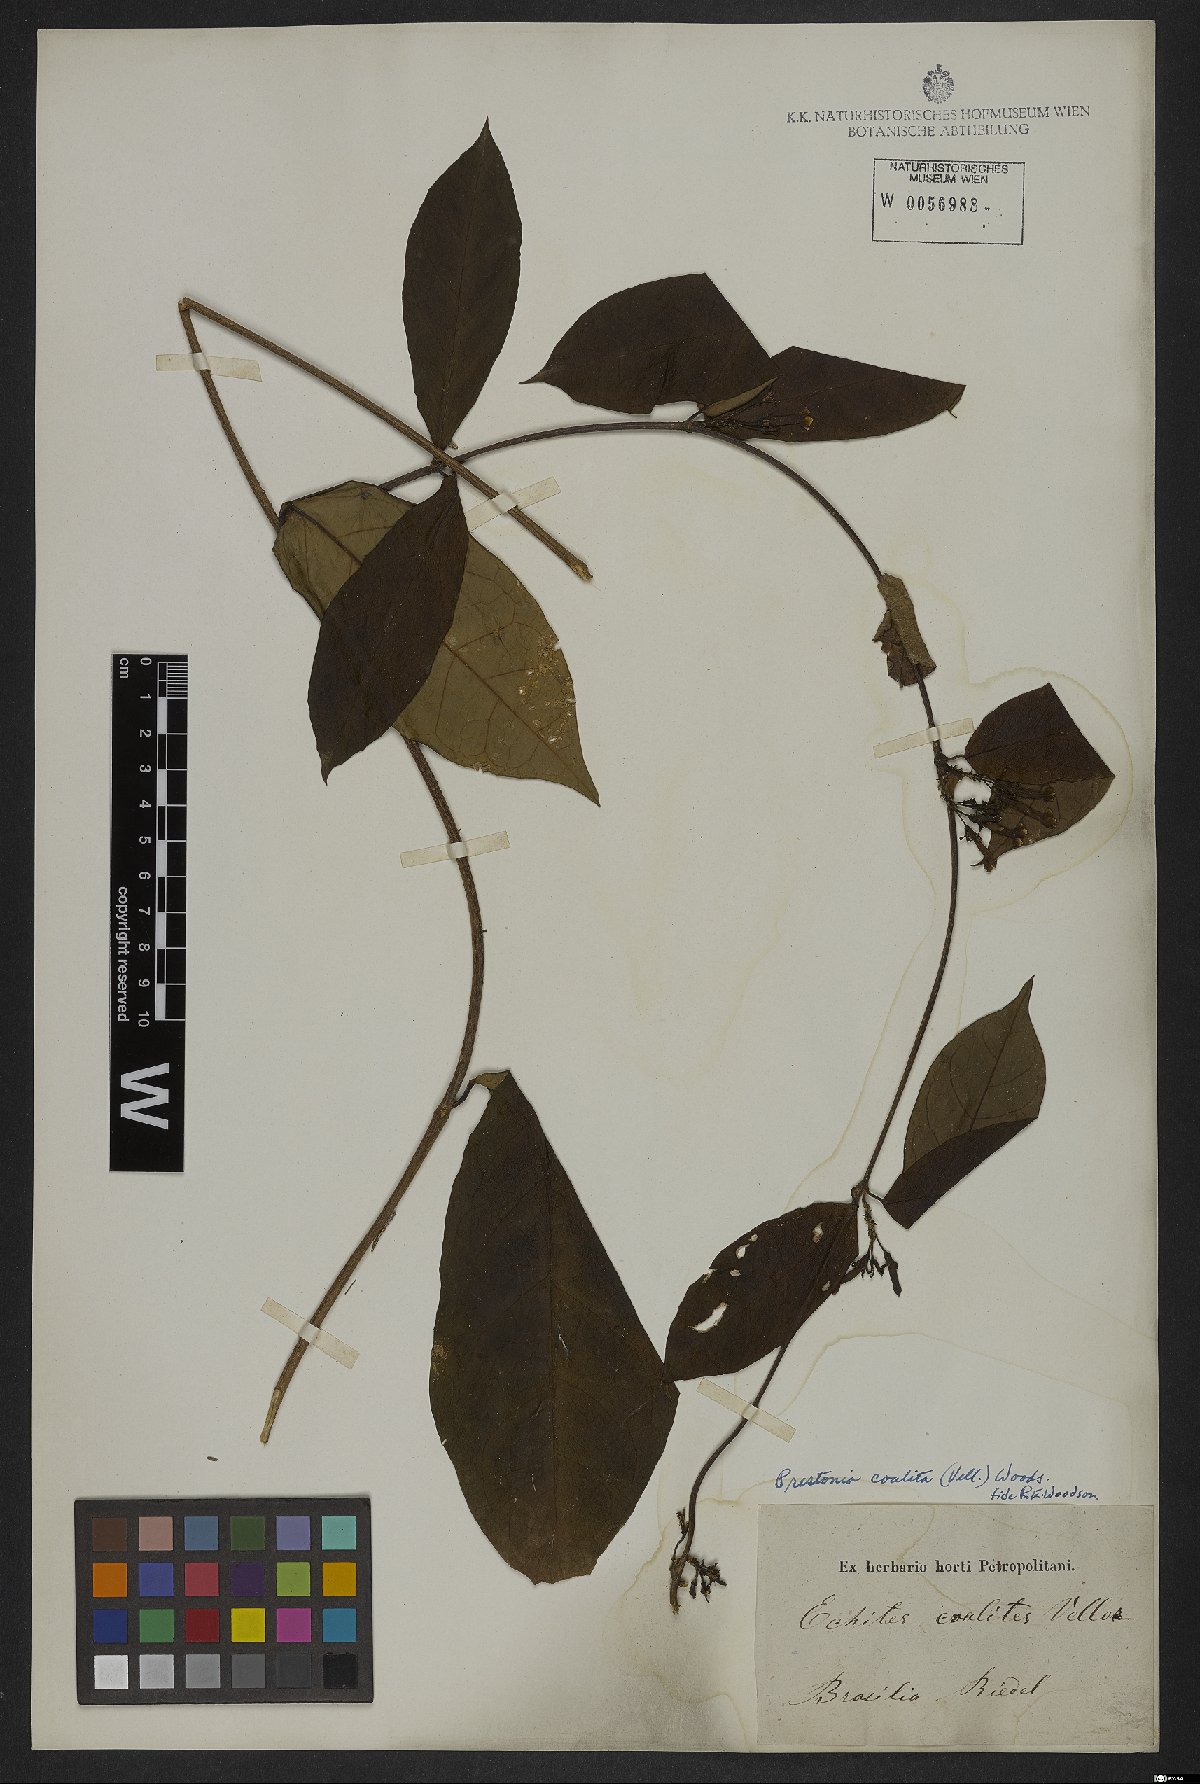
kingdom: Plantae
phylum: Tracheophyta
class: Magnoliopsida
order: Gentianales
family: Apocynaceae
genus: Prestonia
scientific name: Prestonia coalita
